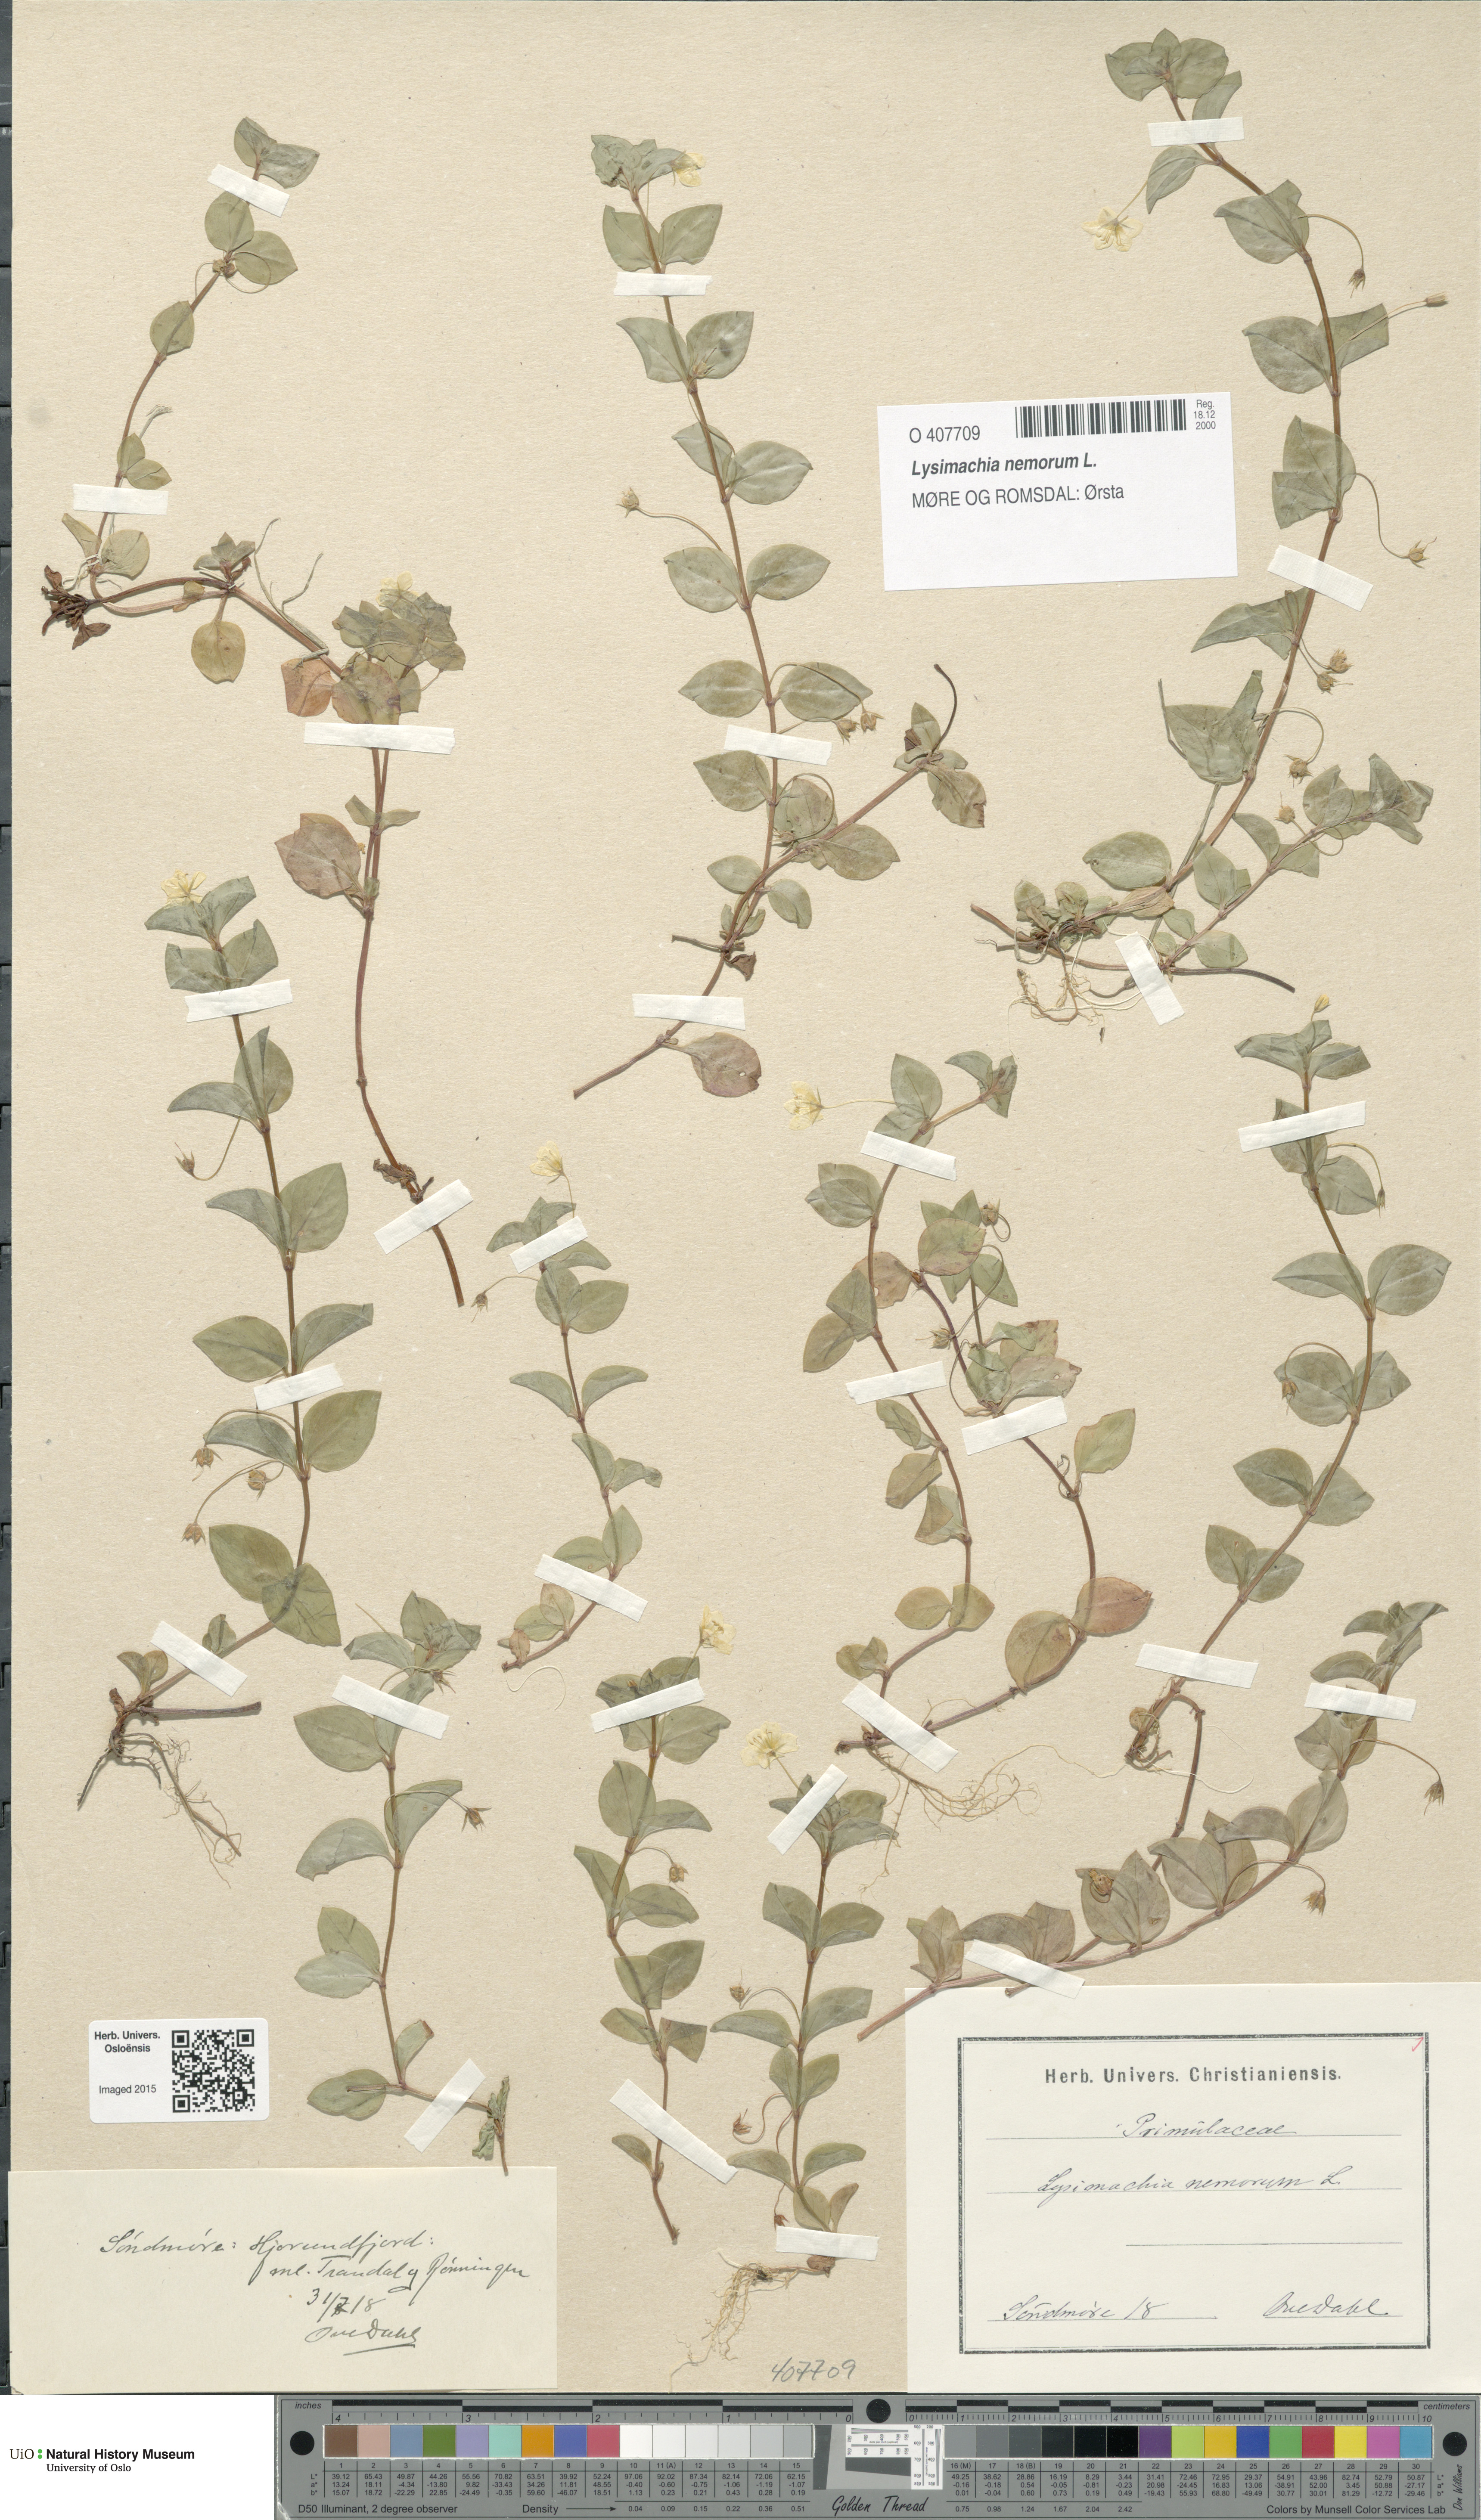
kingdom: Plantae
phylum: Tracheophyta
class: Magnoliopsida
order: Ericales
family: Primulaceae
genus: Lysimachia
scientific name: Lysimachia nemorum
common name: Yellow pimpernel
